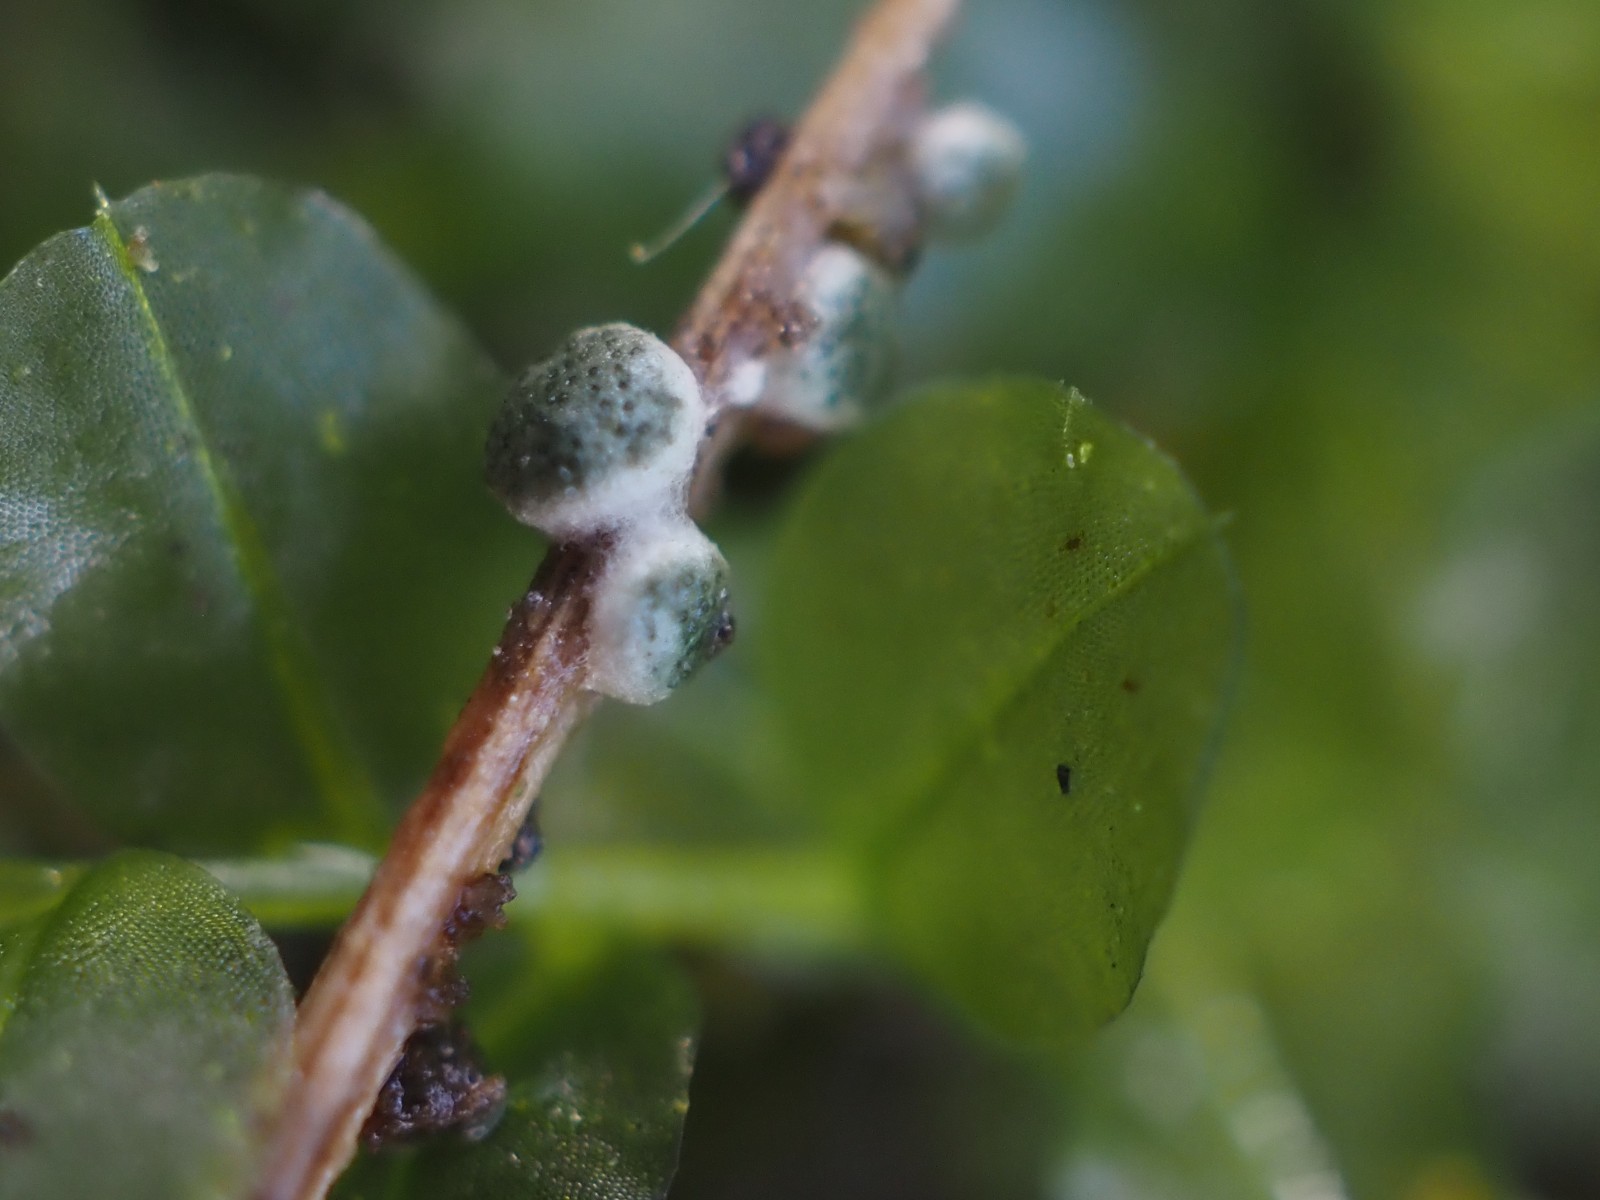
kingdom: Fungi
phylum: Ascomycota
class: Sordariomycetes
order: Hypocreales
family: Hypocreaceae
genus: Trichoderma
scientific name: Trichoderma spinulosum
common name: grågrøn kødkerne
